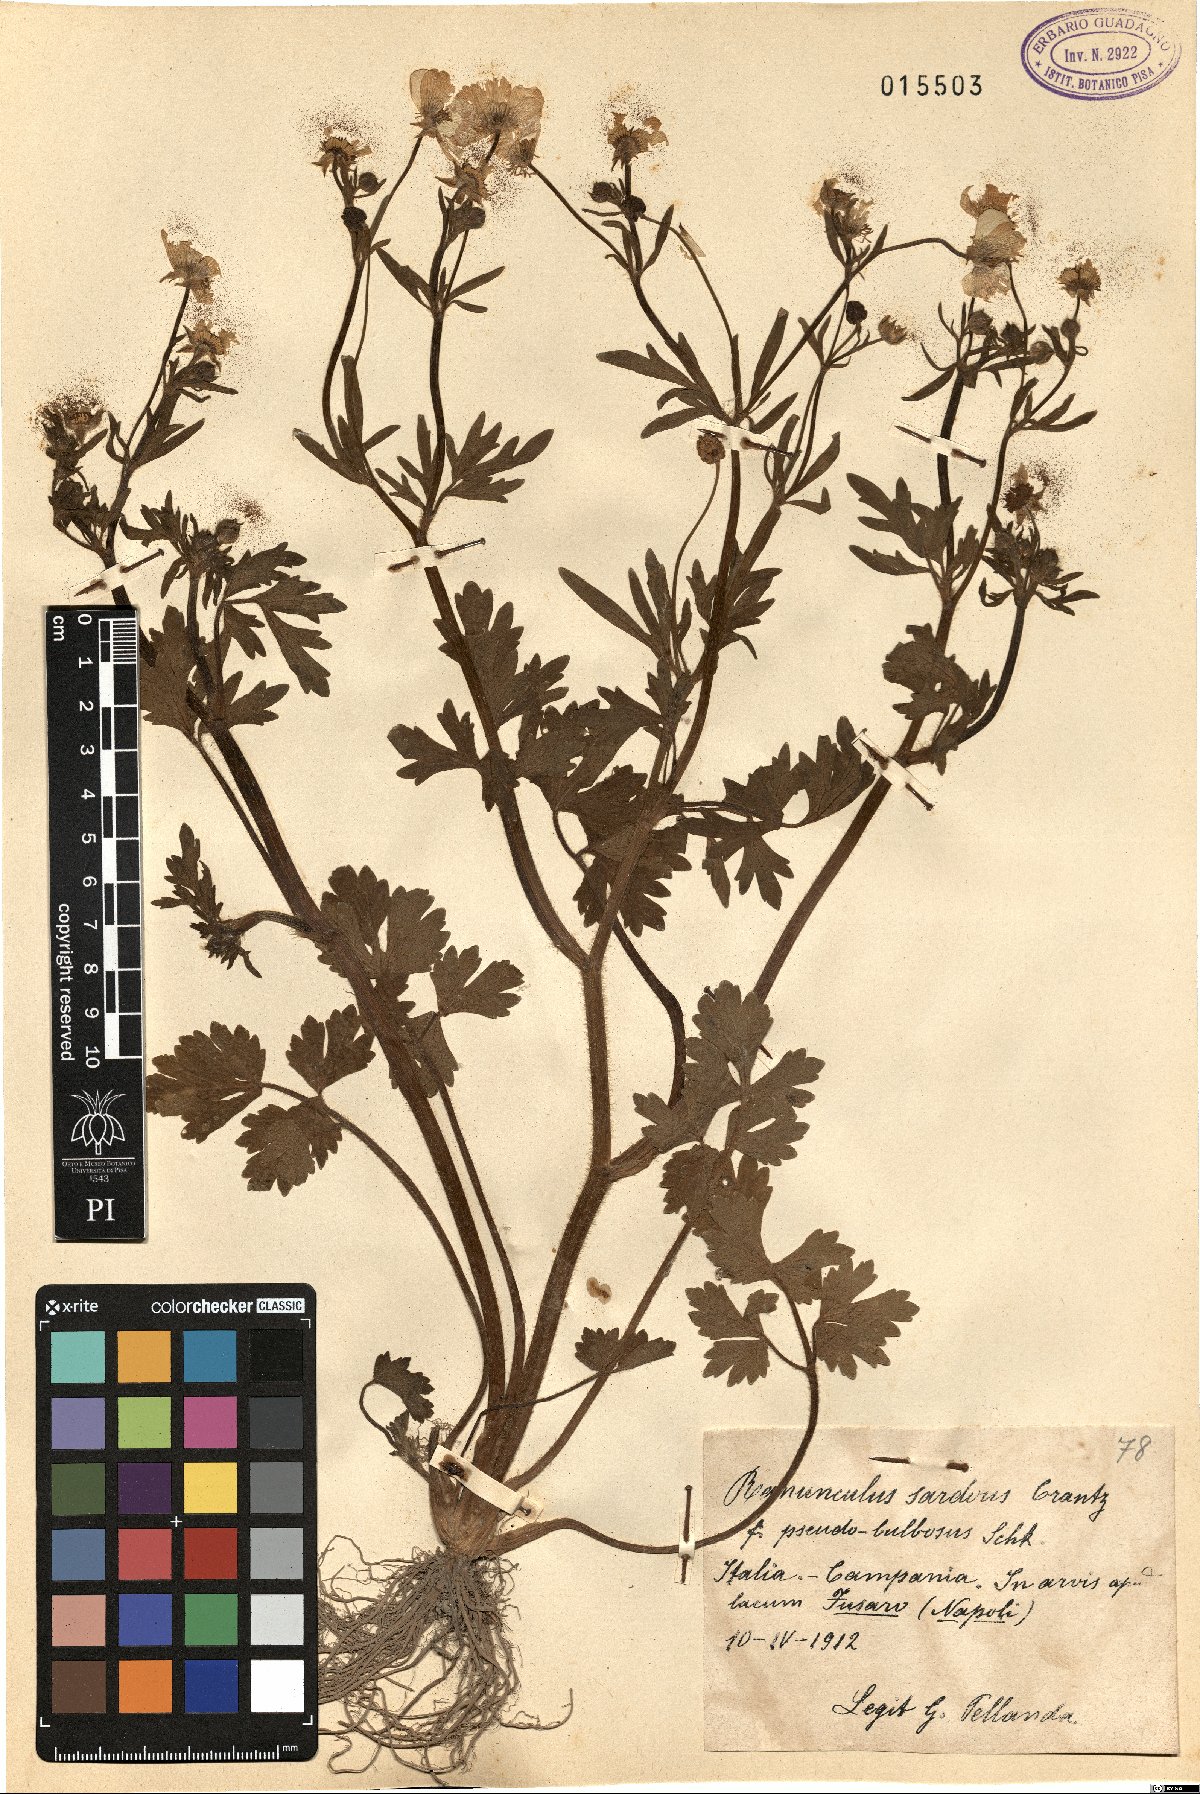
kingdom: Plantae
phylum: Tracheophyta
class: Magnoliopsida
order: Ranunculales
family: Ranunculaceae
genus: Ranunculus
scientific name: Ranunculus sardous
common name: Hairy buttercup
